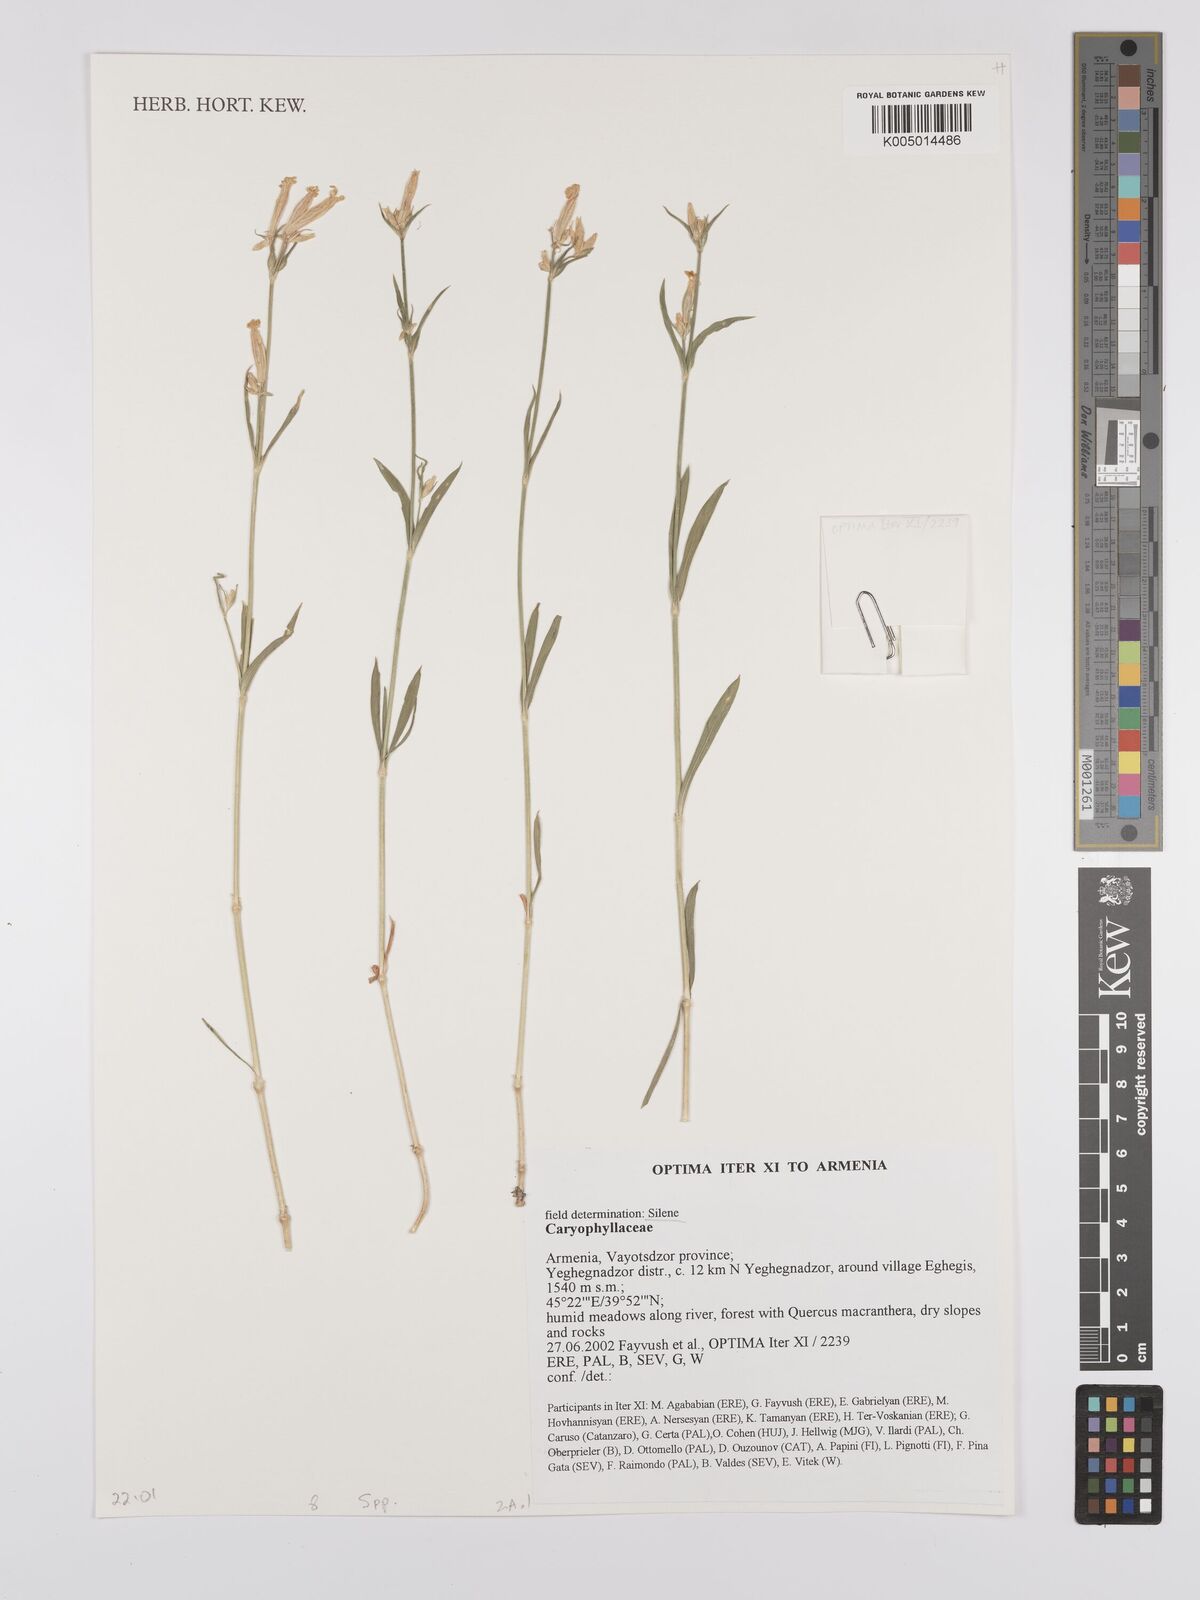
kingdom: Plantae
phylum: Tracheophyta
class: Magnoliopsida
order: Caryophyllales
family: Caryophyllaceae
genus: Silene
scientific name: Silene
